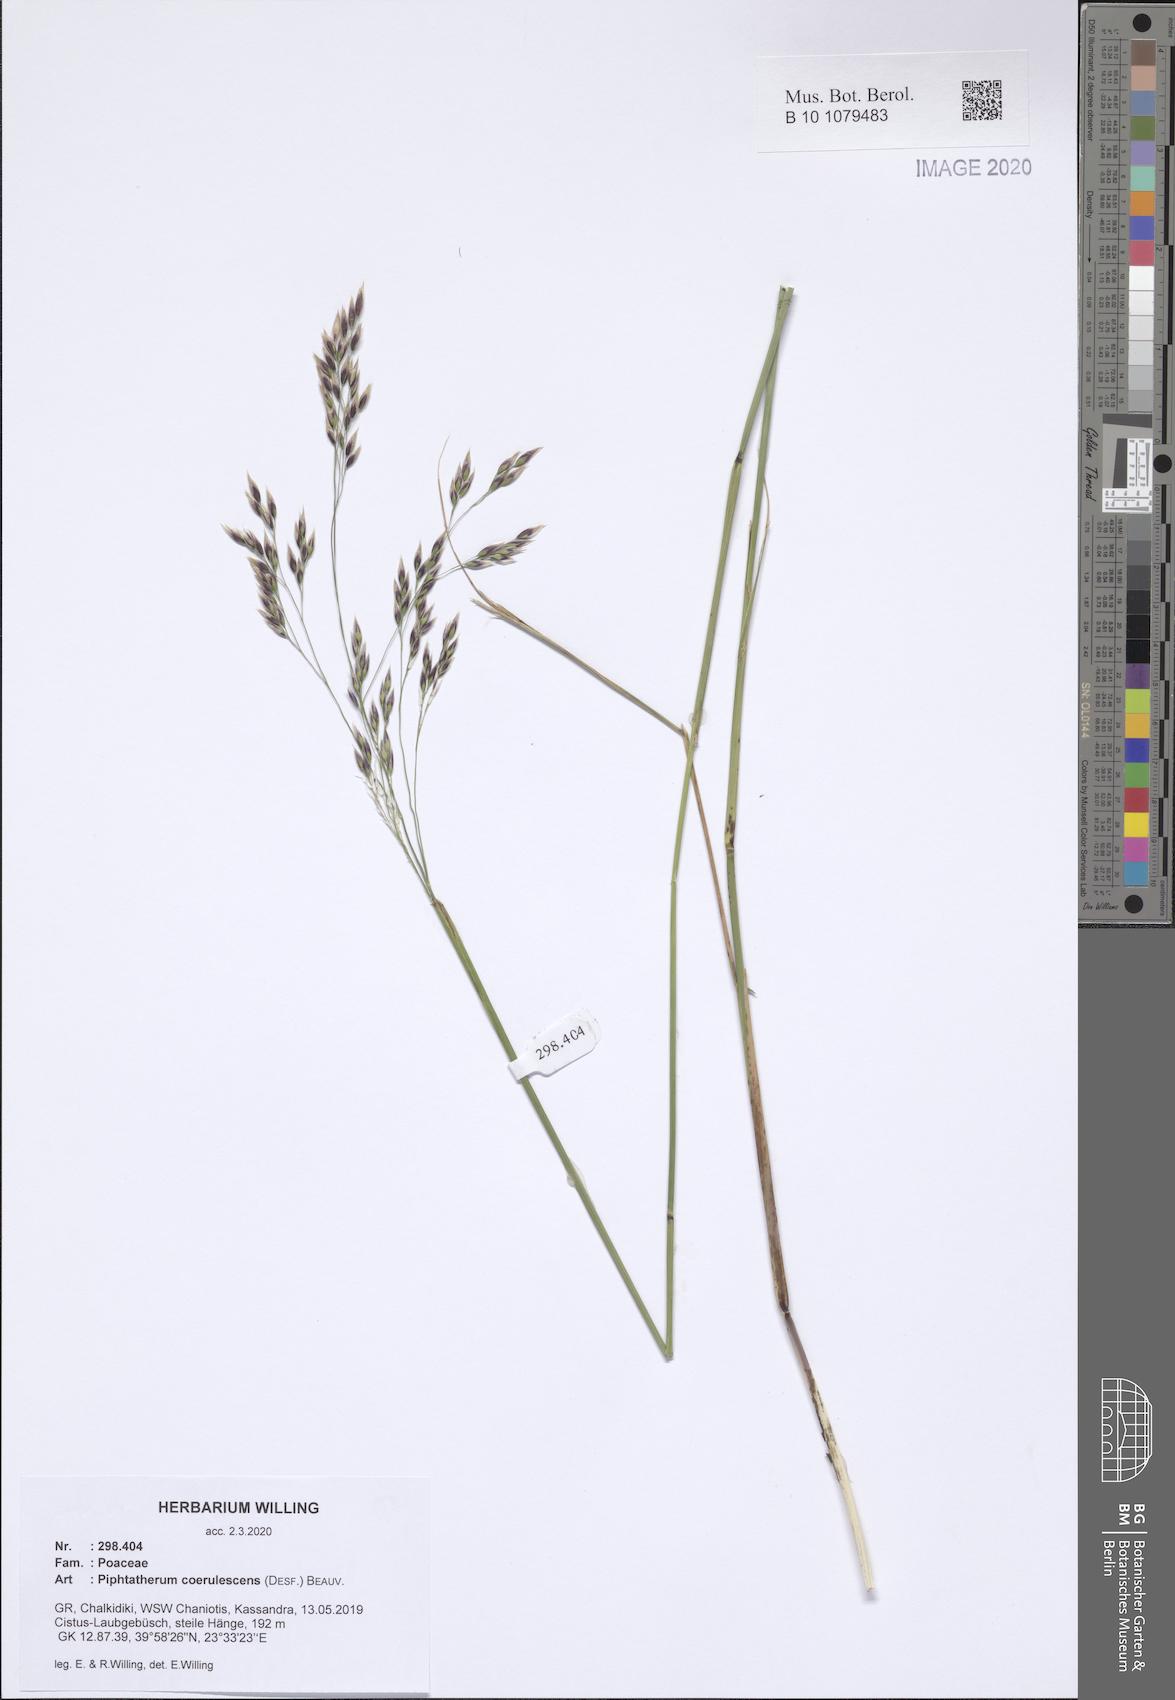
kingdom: Plantae
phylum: Tracheophyta
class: Liliopsida
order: Poales
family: Poaceae
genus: Piptatherum
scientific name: Piptatherum coerulescens
